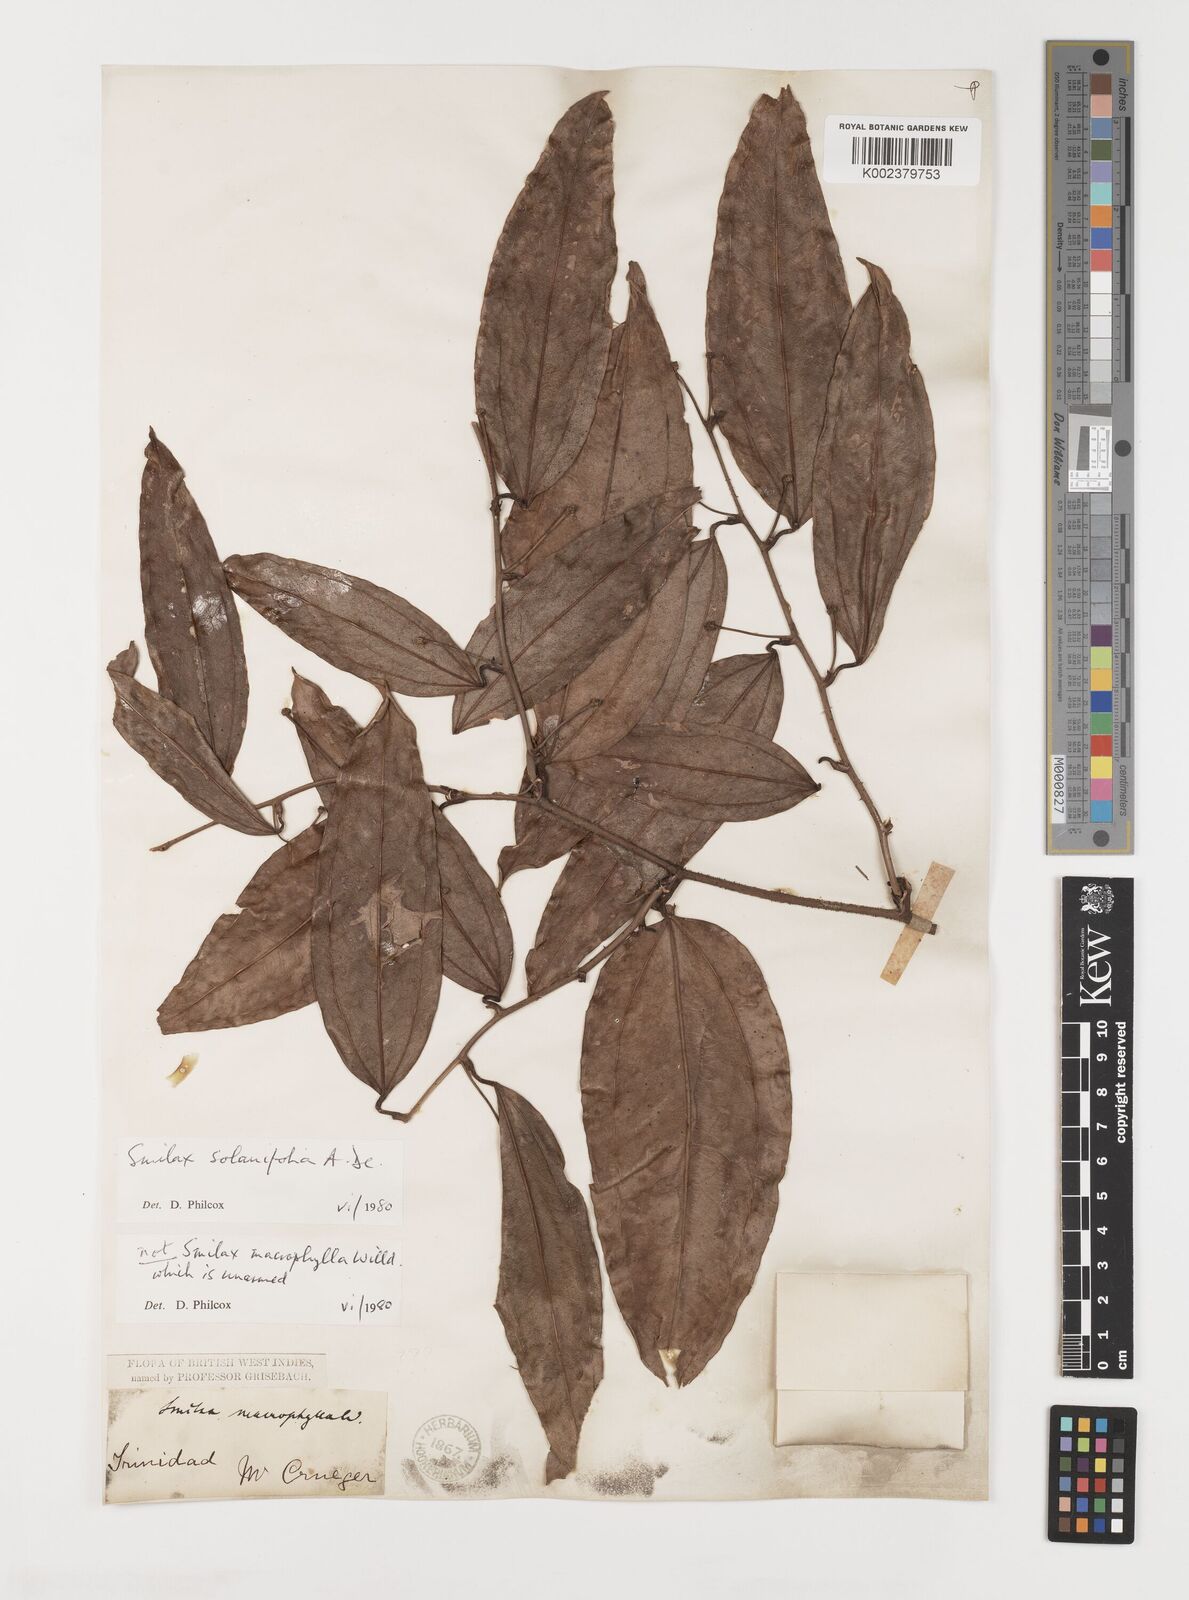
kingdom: Plantae
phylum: Tracheophyta
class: Liliopsida
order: Liliales
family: Smilacaceae
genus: Smilax
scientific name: Smilax solanifolia
